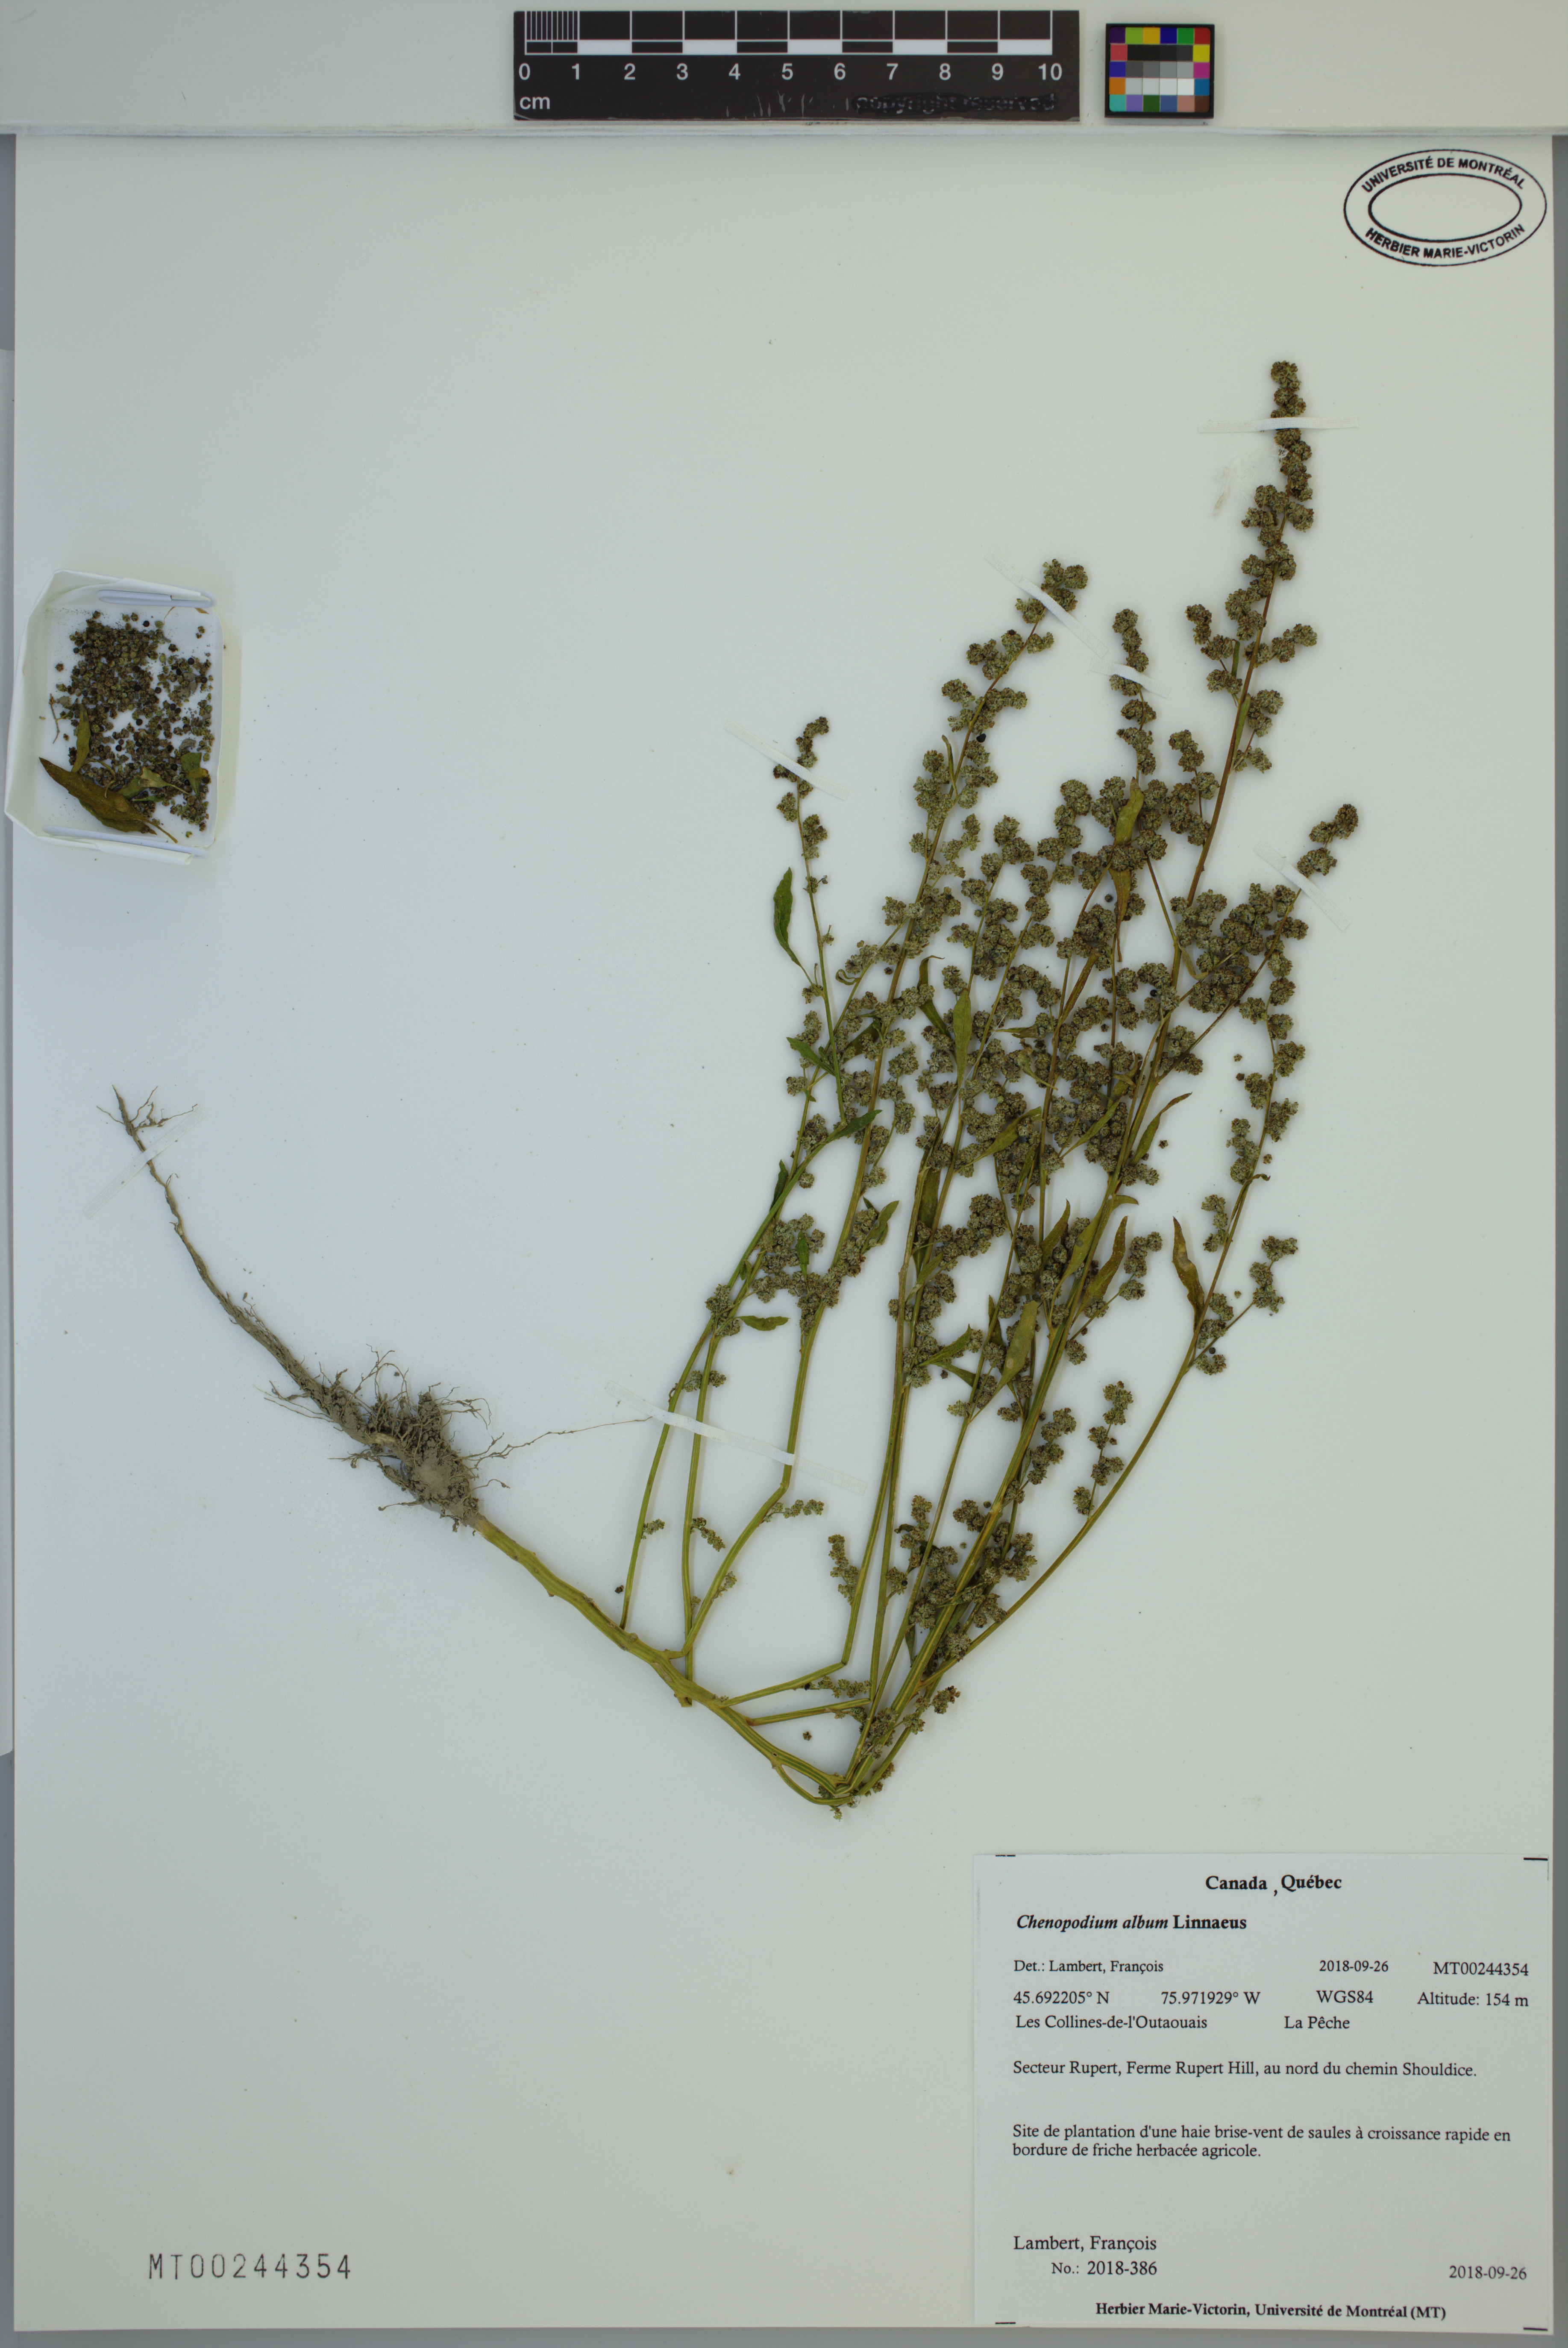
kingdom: Plantae
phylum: Tracheophyta
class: Magnoliopsida
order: Caryophyllales
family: Amaranthaceae
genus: Chenopodium
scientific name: Chenopodium album
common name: Fat-hen
